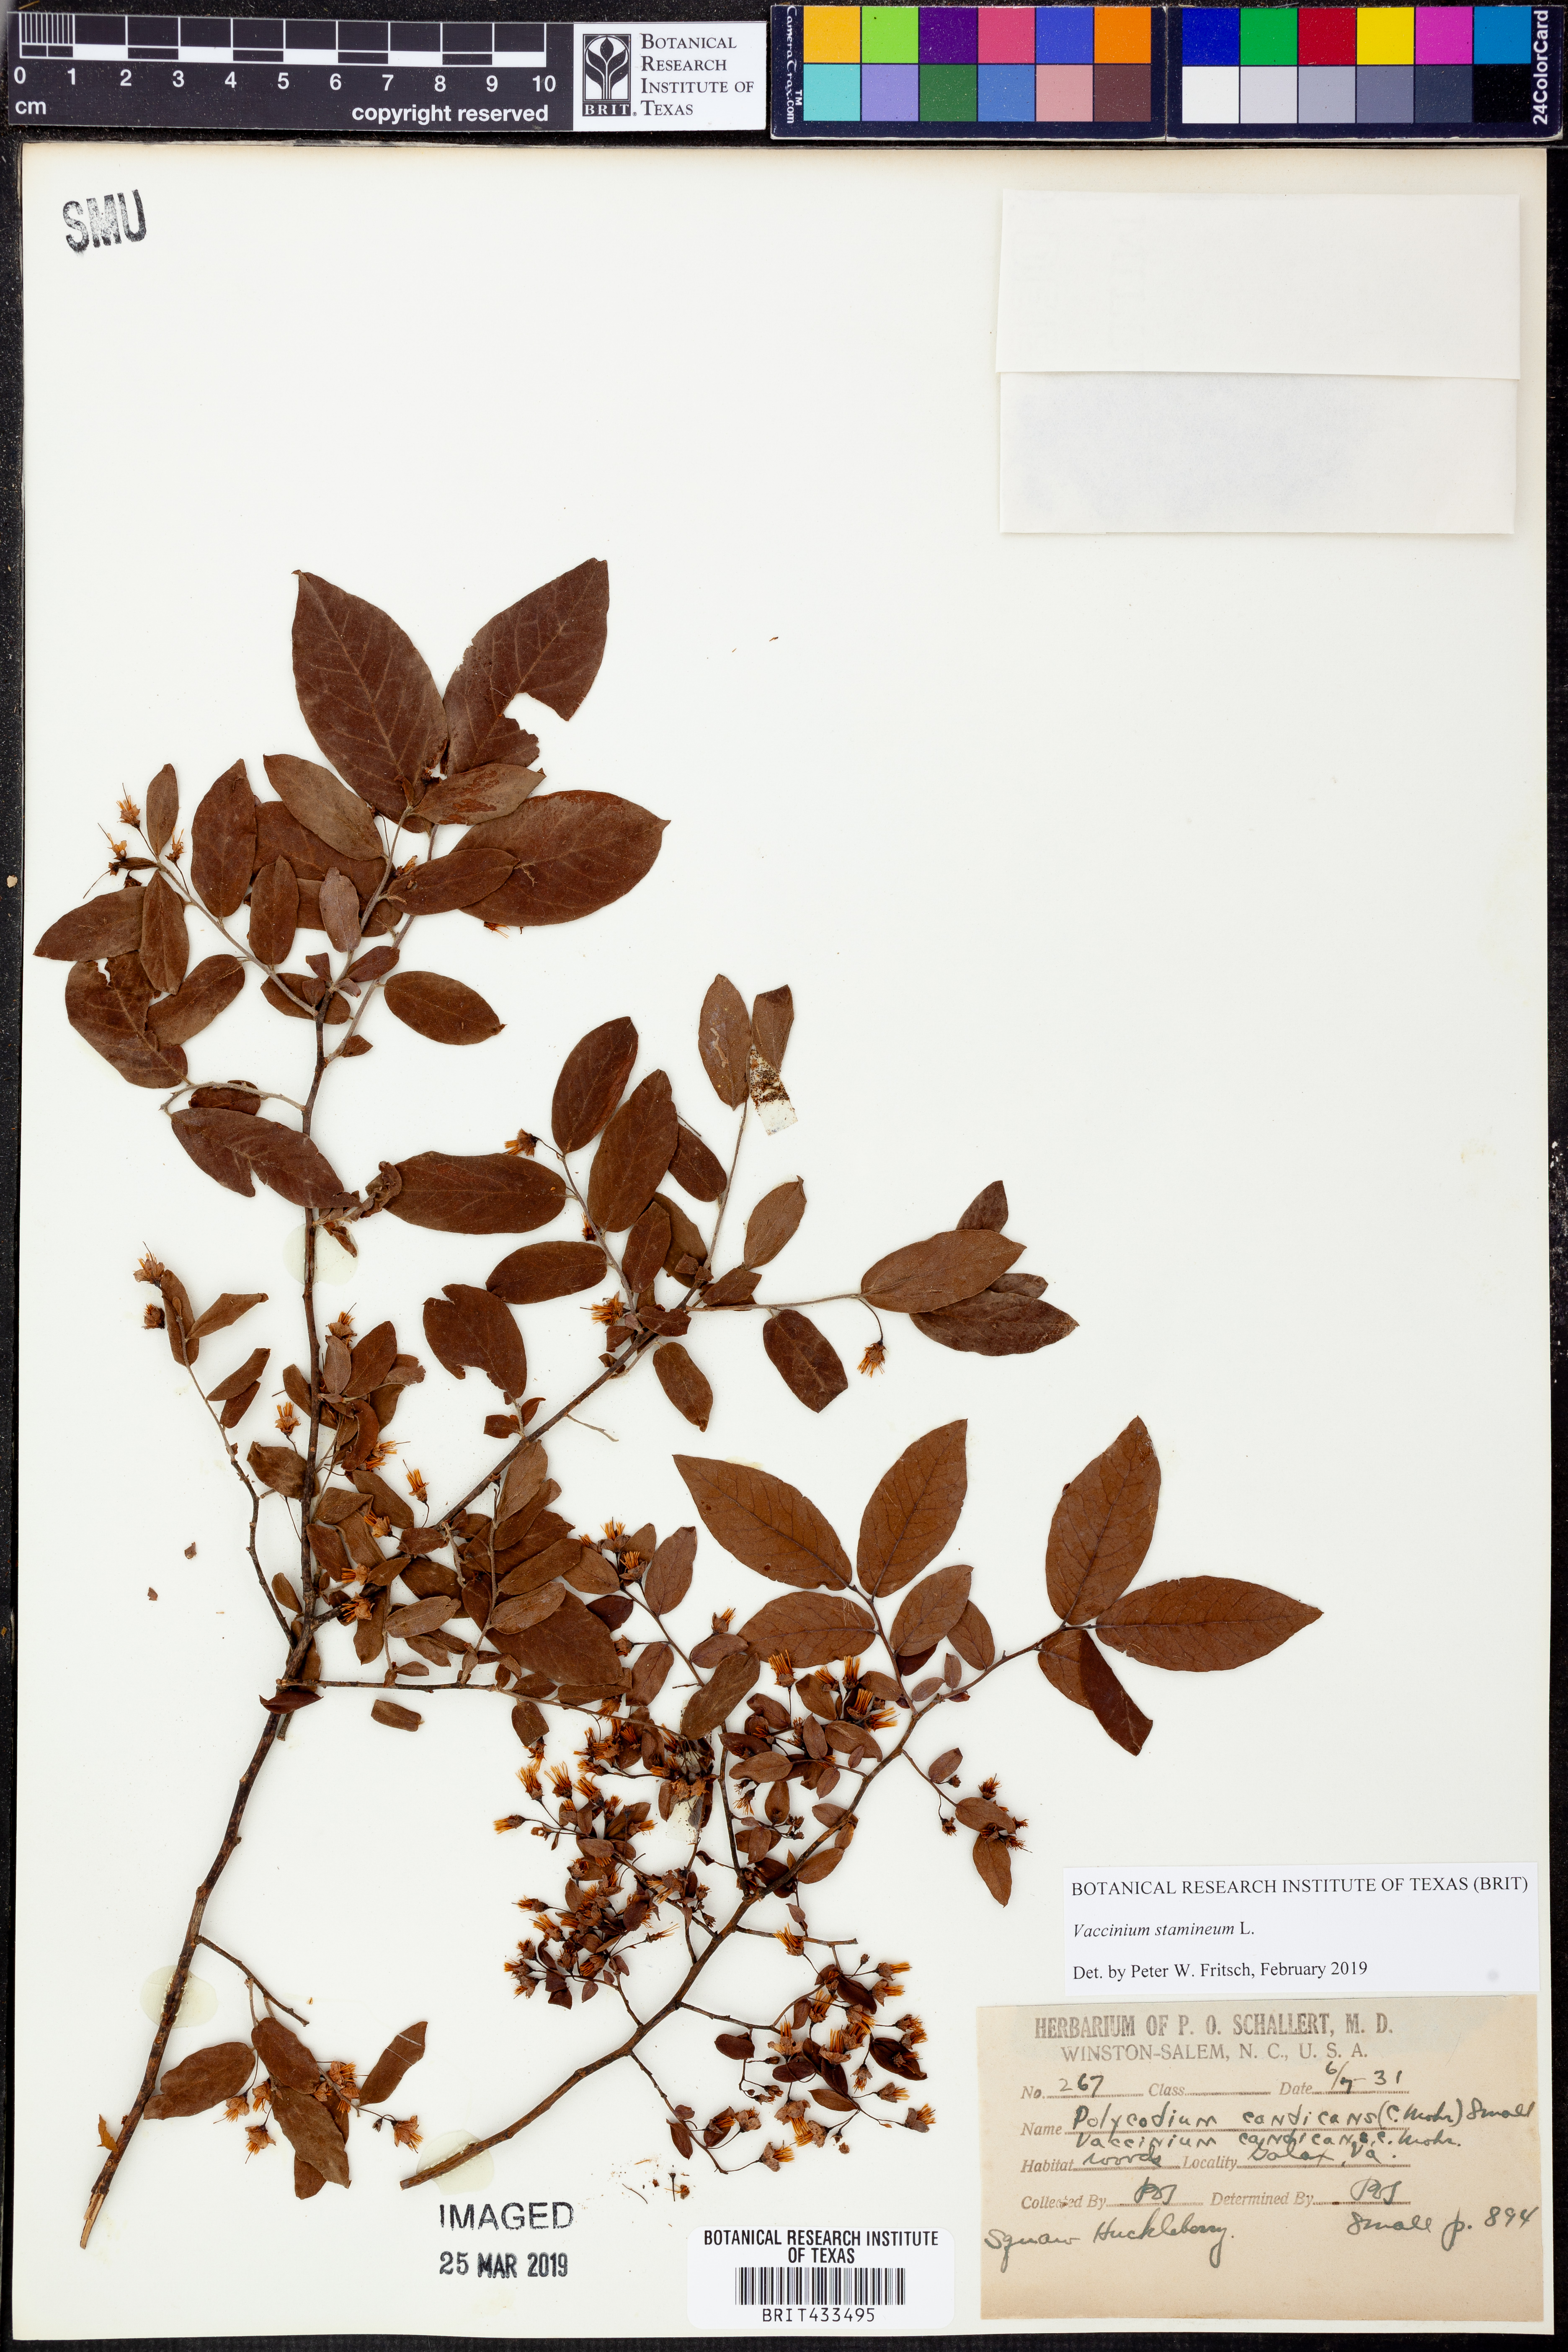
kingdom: Plantae
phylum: Tracheophyta
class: Magnoliopsida
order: Ericales
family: Ericaceae
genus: Vaccinium
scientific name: Vaccinium stamineum
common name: Deerberry
